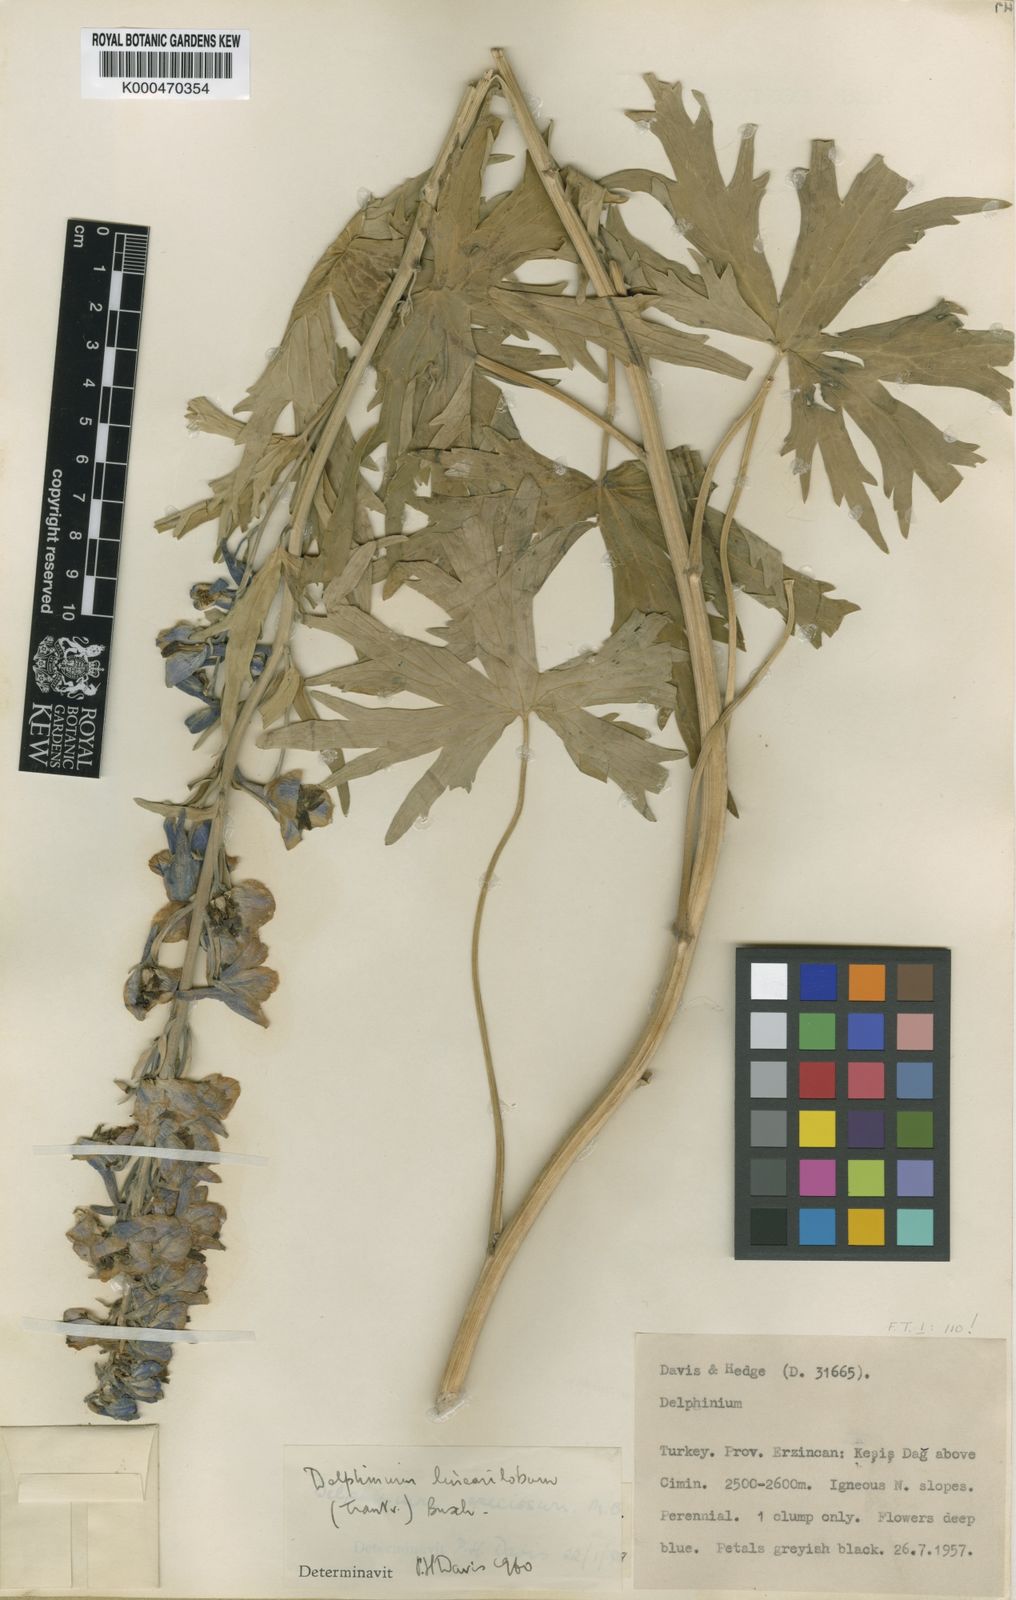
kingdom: Plantae
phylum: Tracheophyta
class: Magnoliopsida
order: Ranunculales
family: Ranunculaceae
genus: Delphinium
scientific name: Delphinium linearilobum
